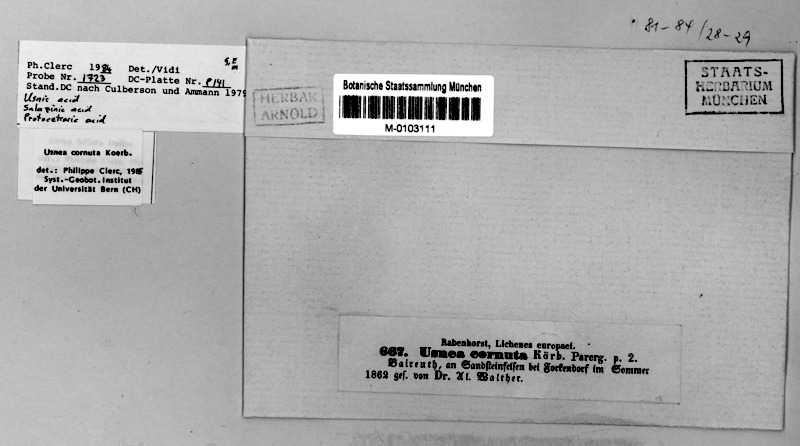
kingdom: Fungi
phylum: Ascomycota
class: Lecanoromycetes
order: Lecanorales
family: Parmeliaceae
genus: Usnea
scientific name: Usnea cornuta
